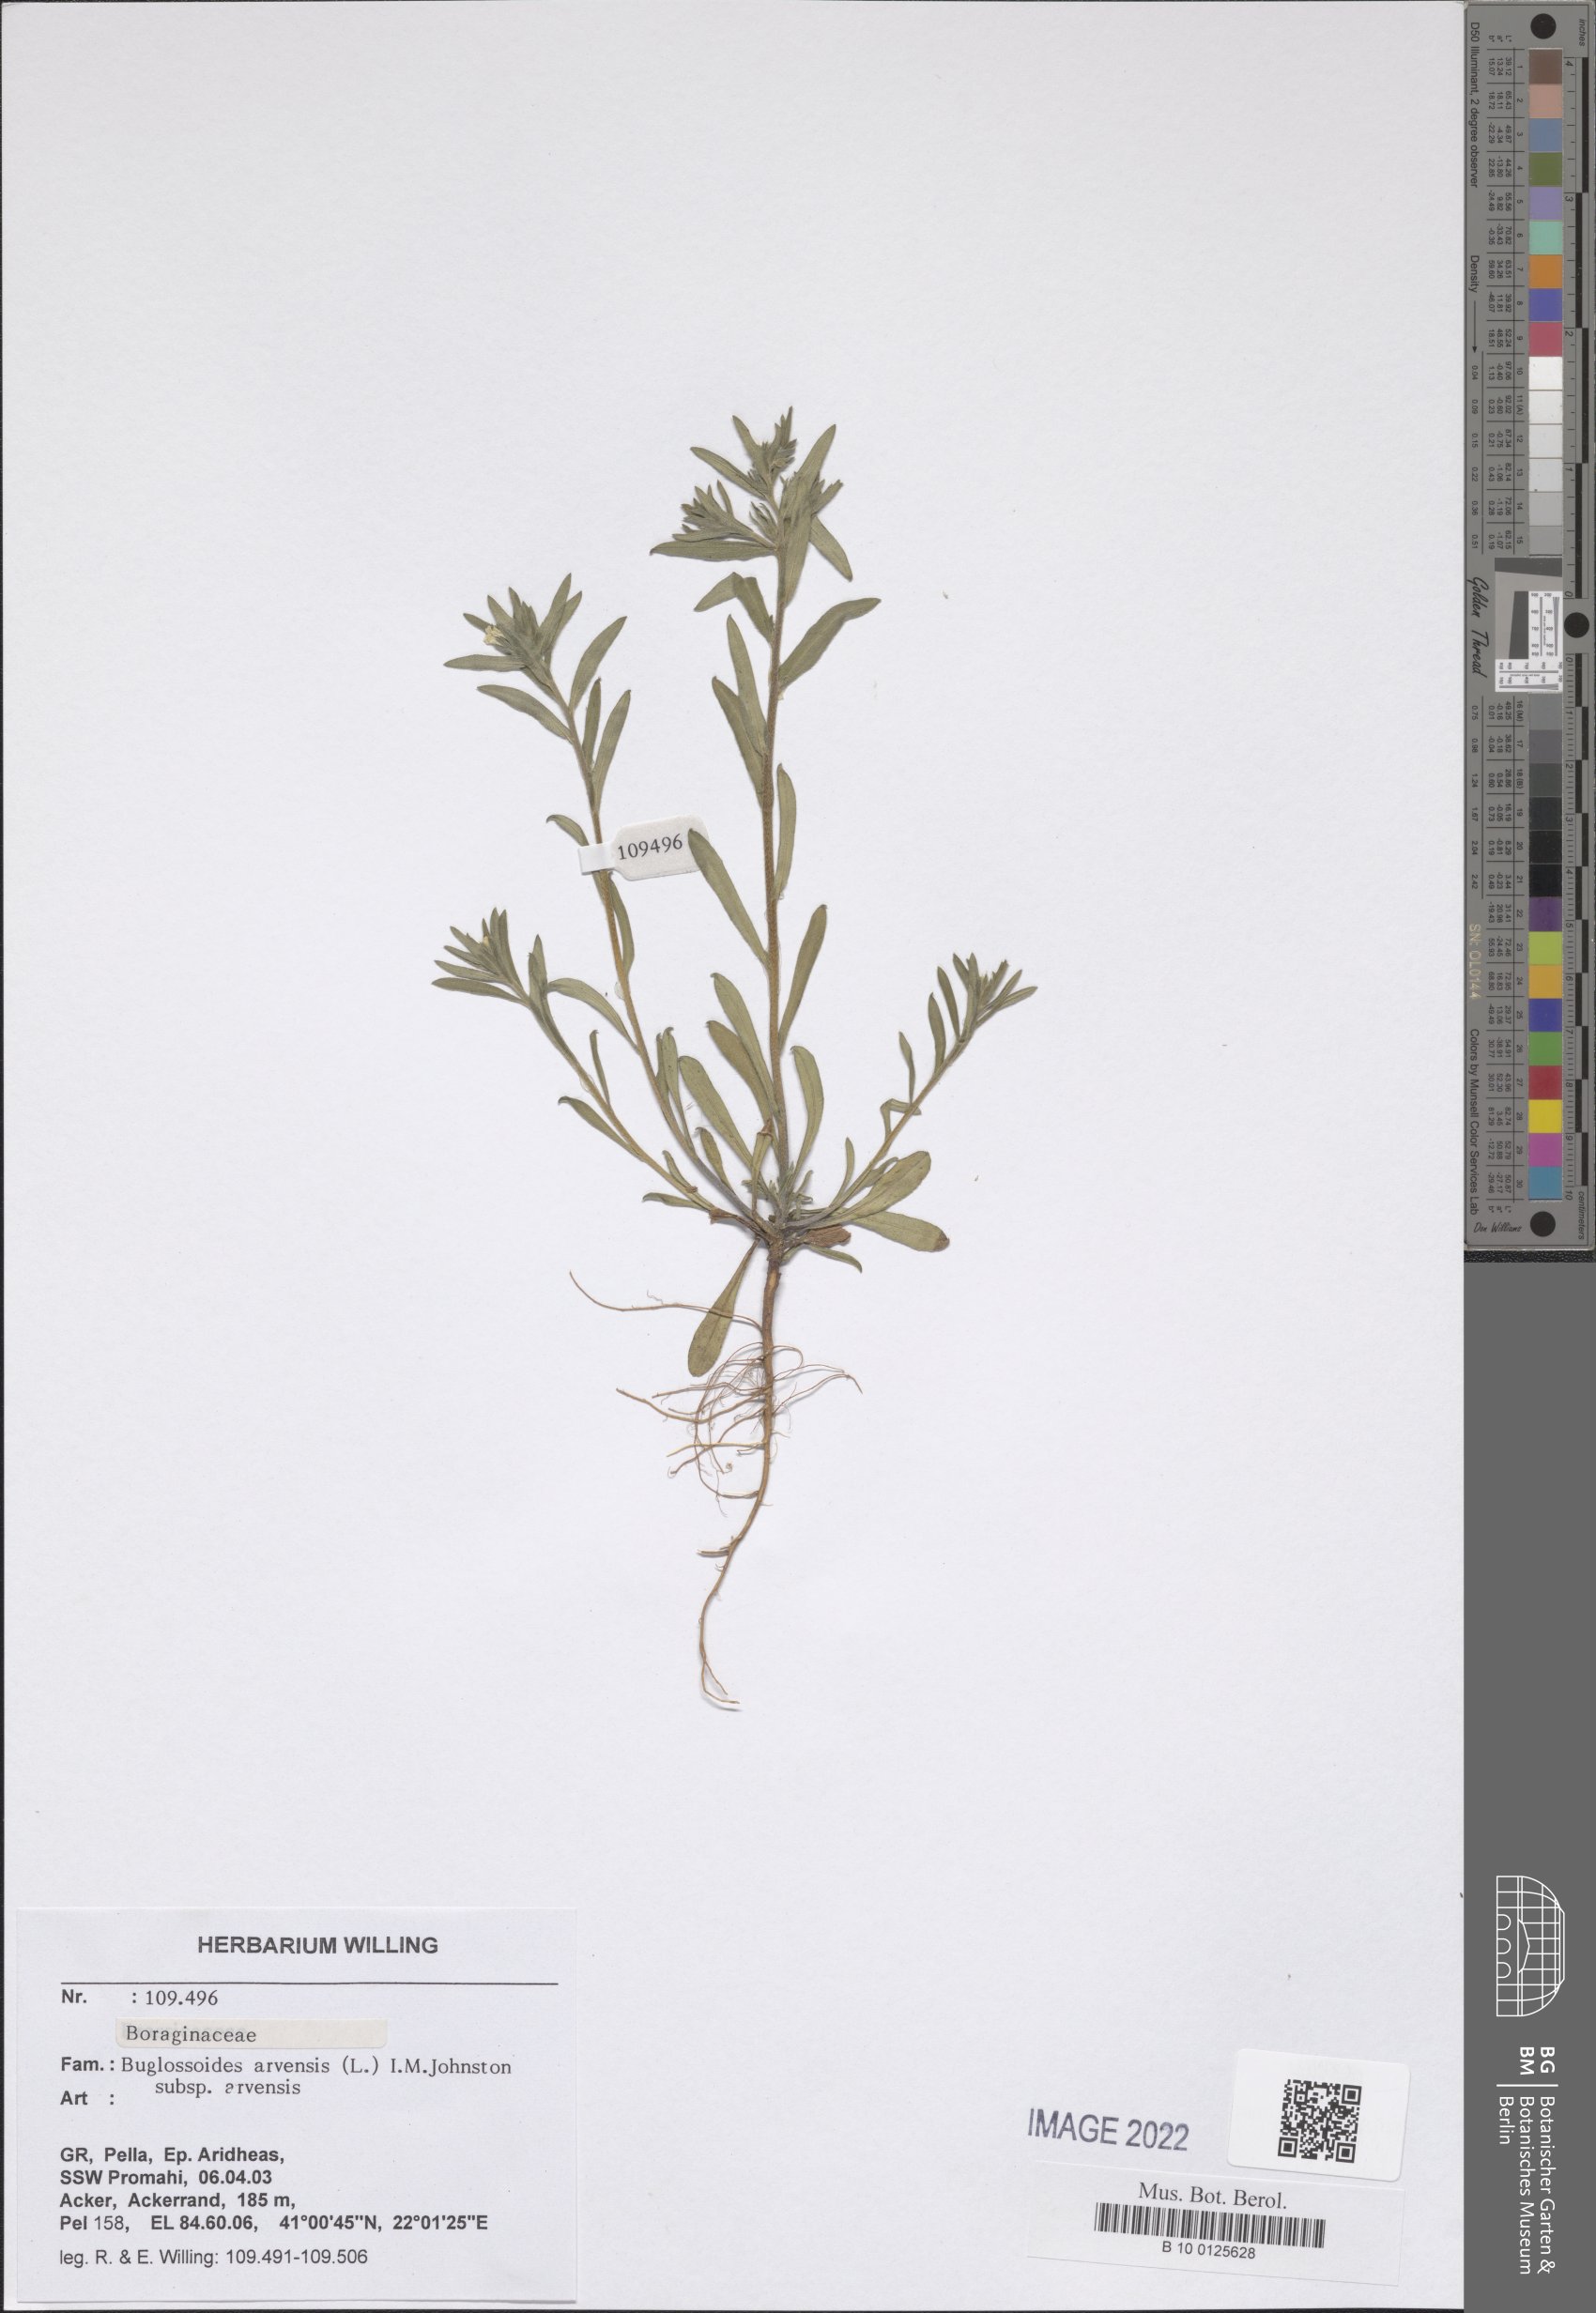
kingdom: Plantae
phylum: Tracheophyta
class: Magnoliopsida
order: Boraginales
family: Boraginaceae
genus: Buglossoides
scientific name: Buglossoides arvensis
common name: Corn gromwell
